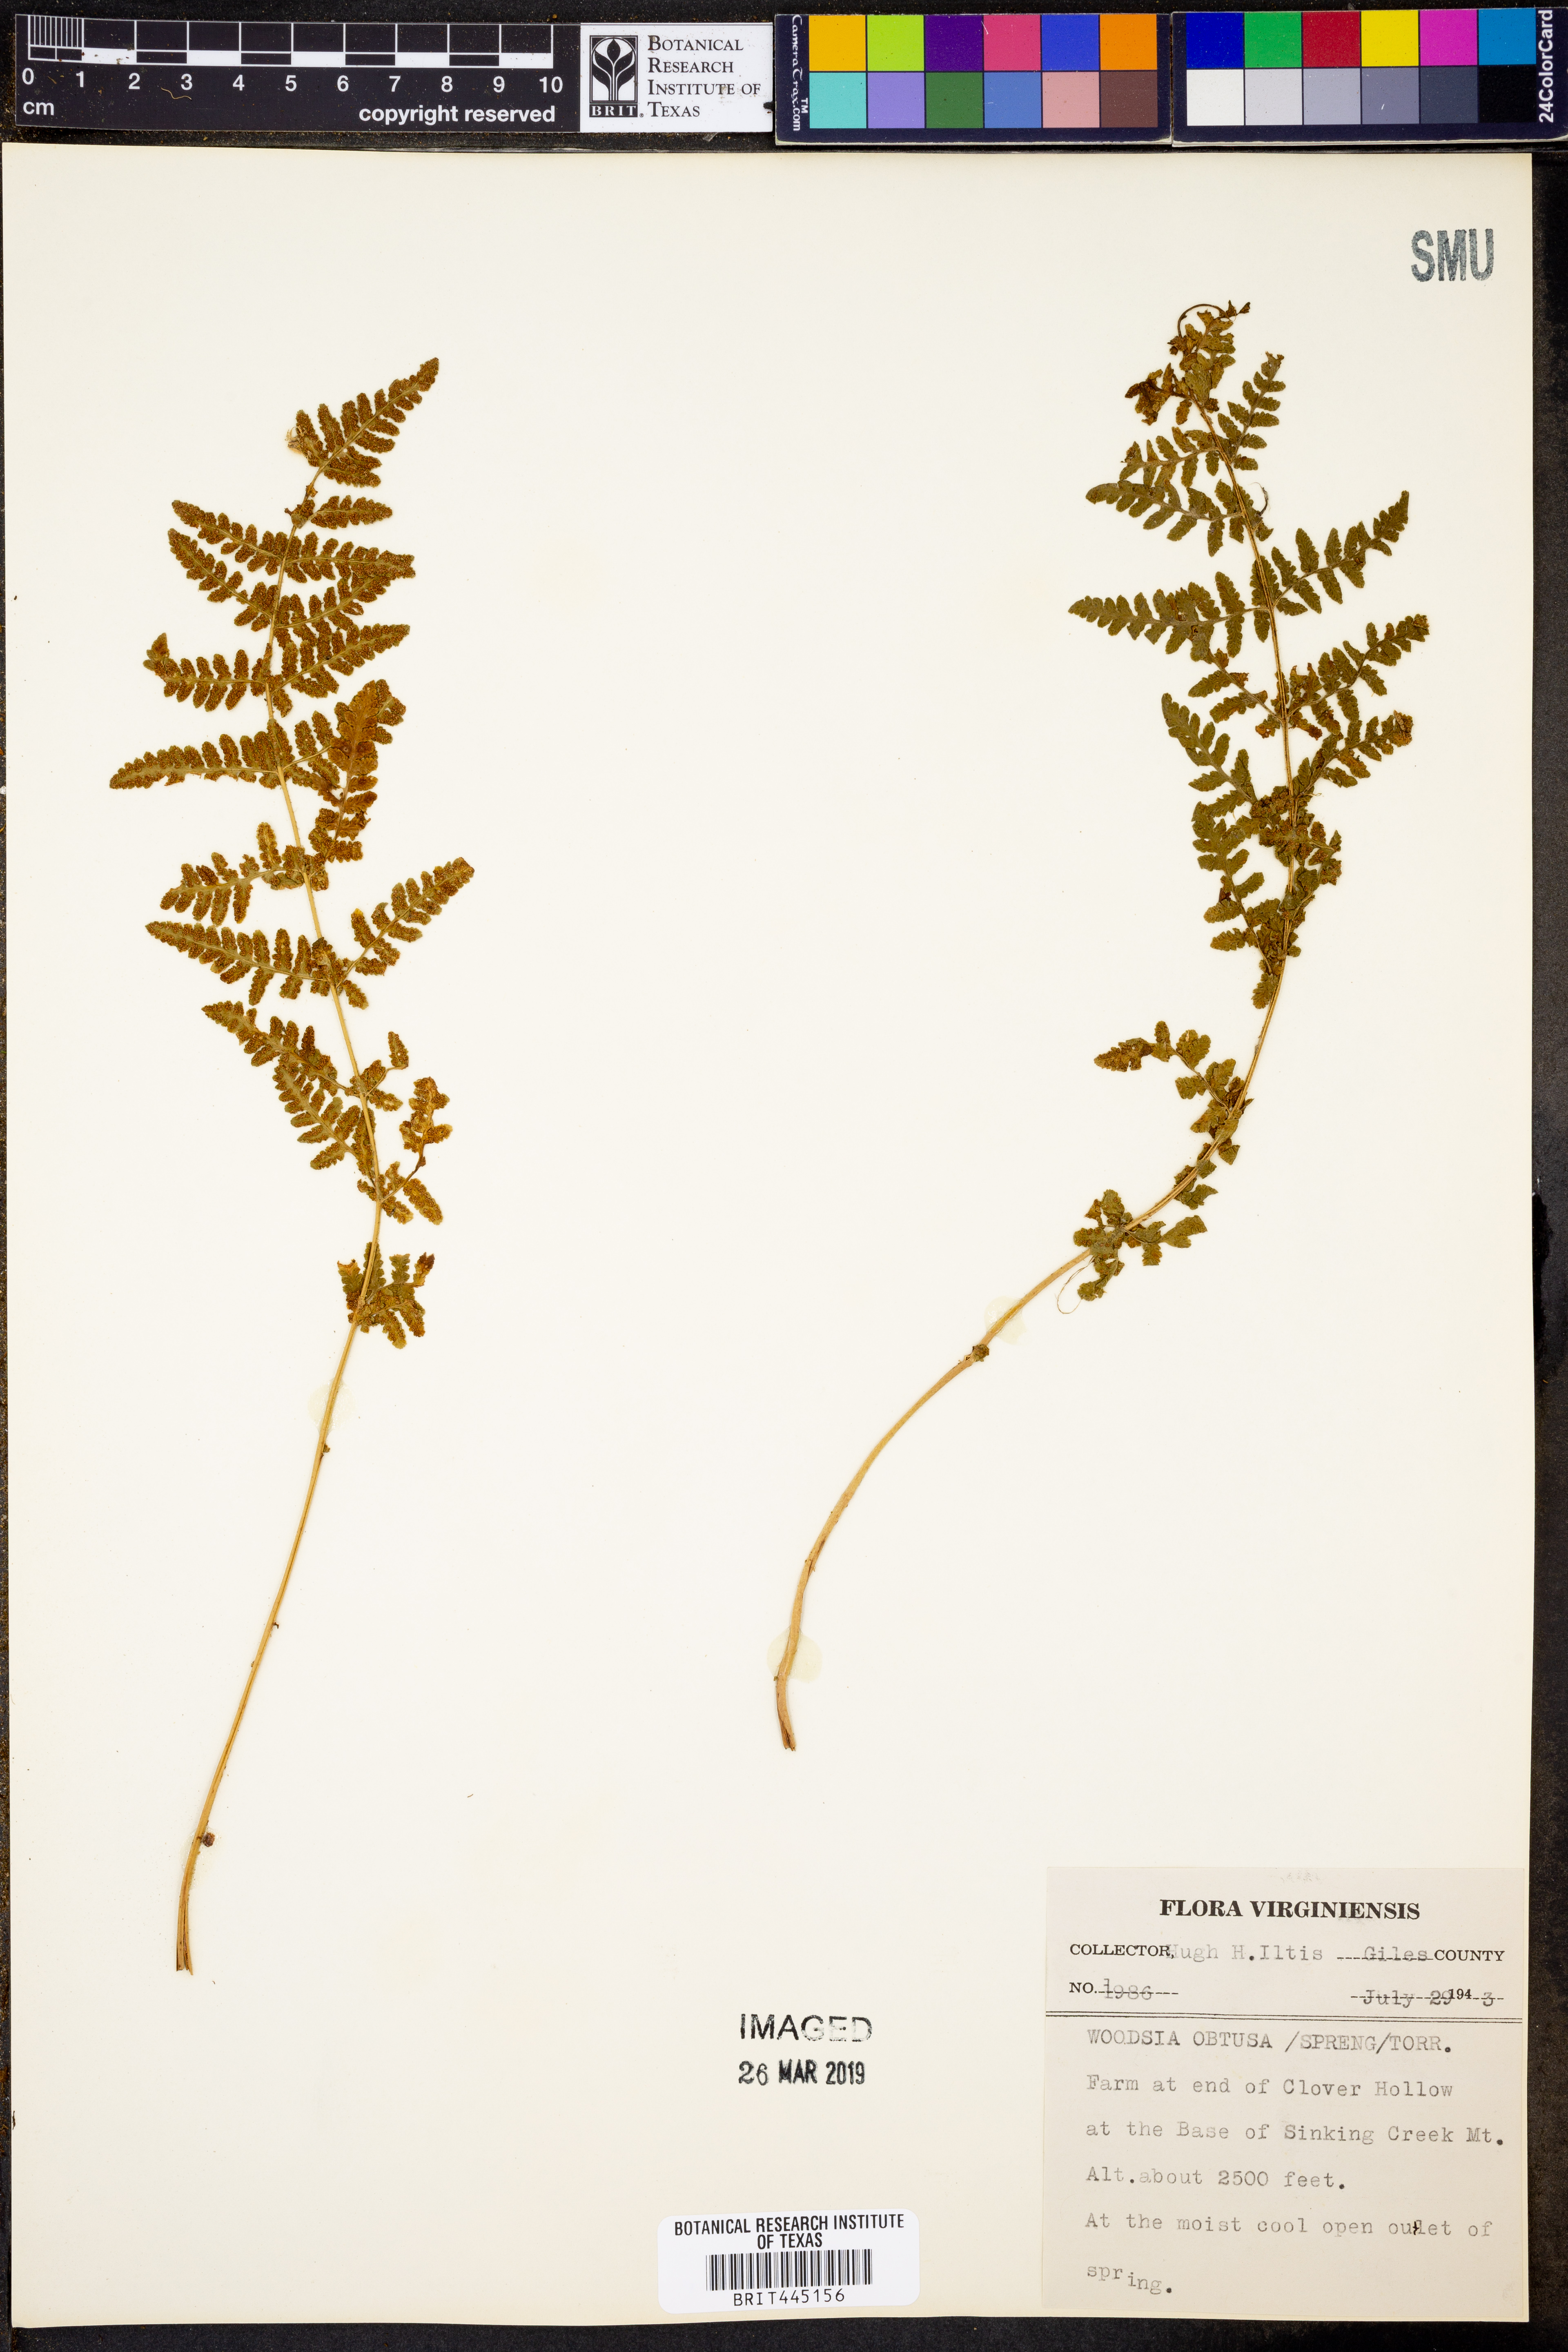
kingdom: Plantae
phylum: Tracheophyta
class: Polypodiopsida
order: Polypodiales
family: Woodsiaceae
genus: Physematium
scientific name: Physematium obtusum
